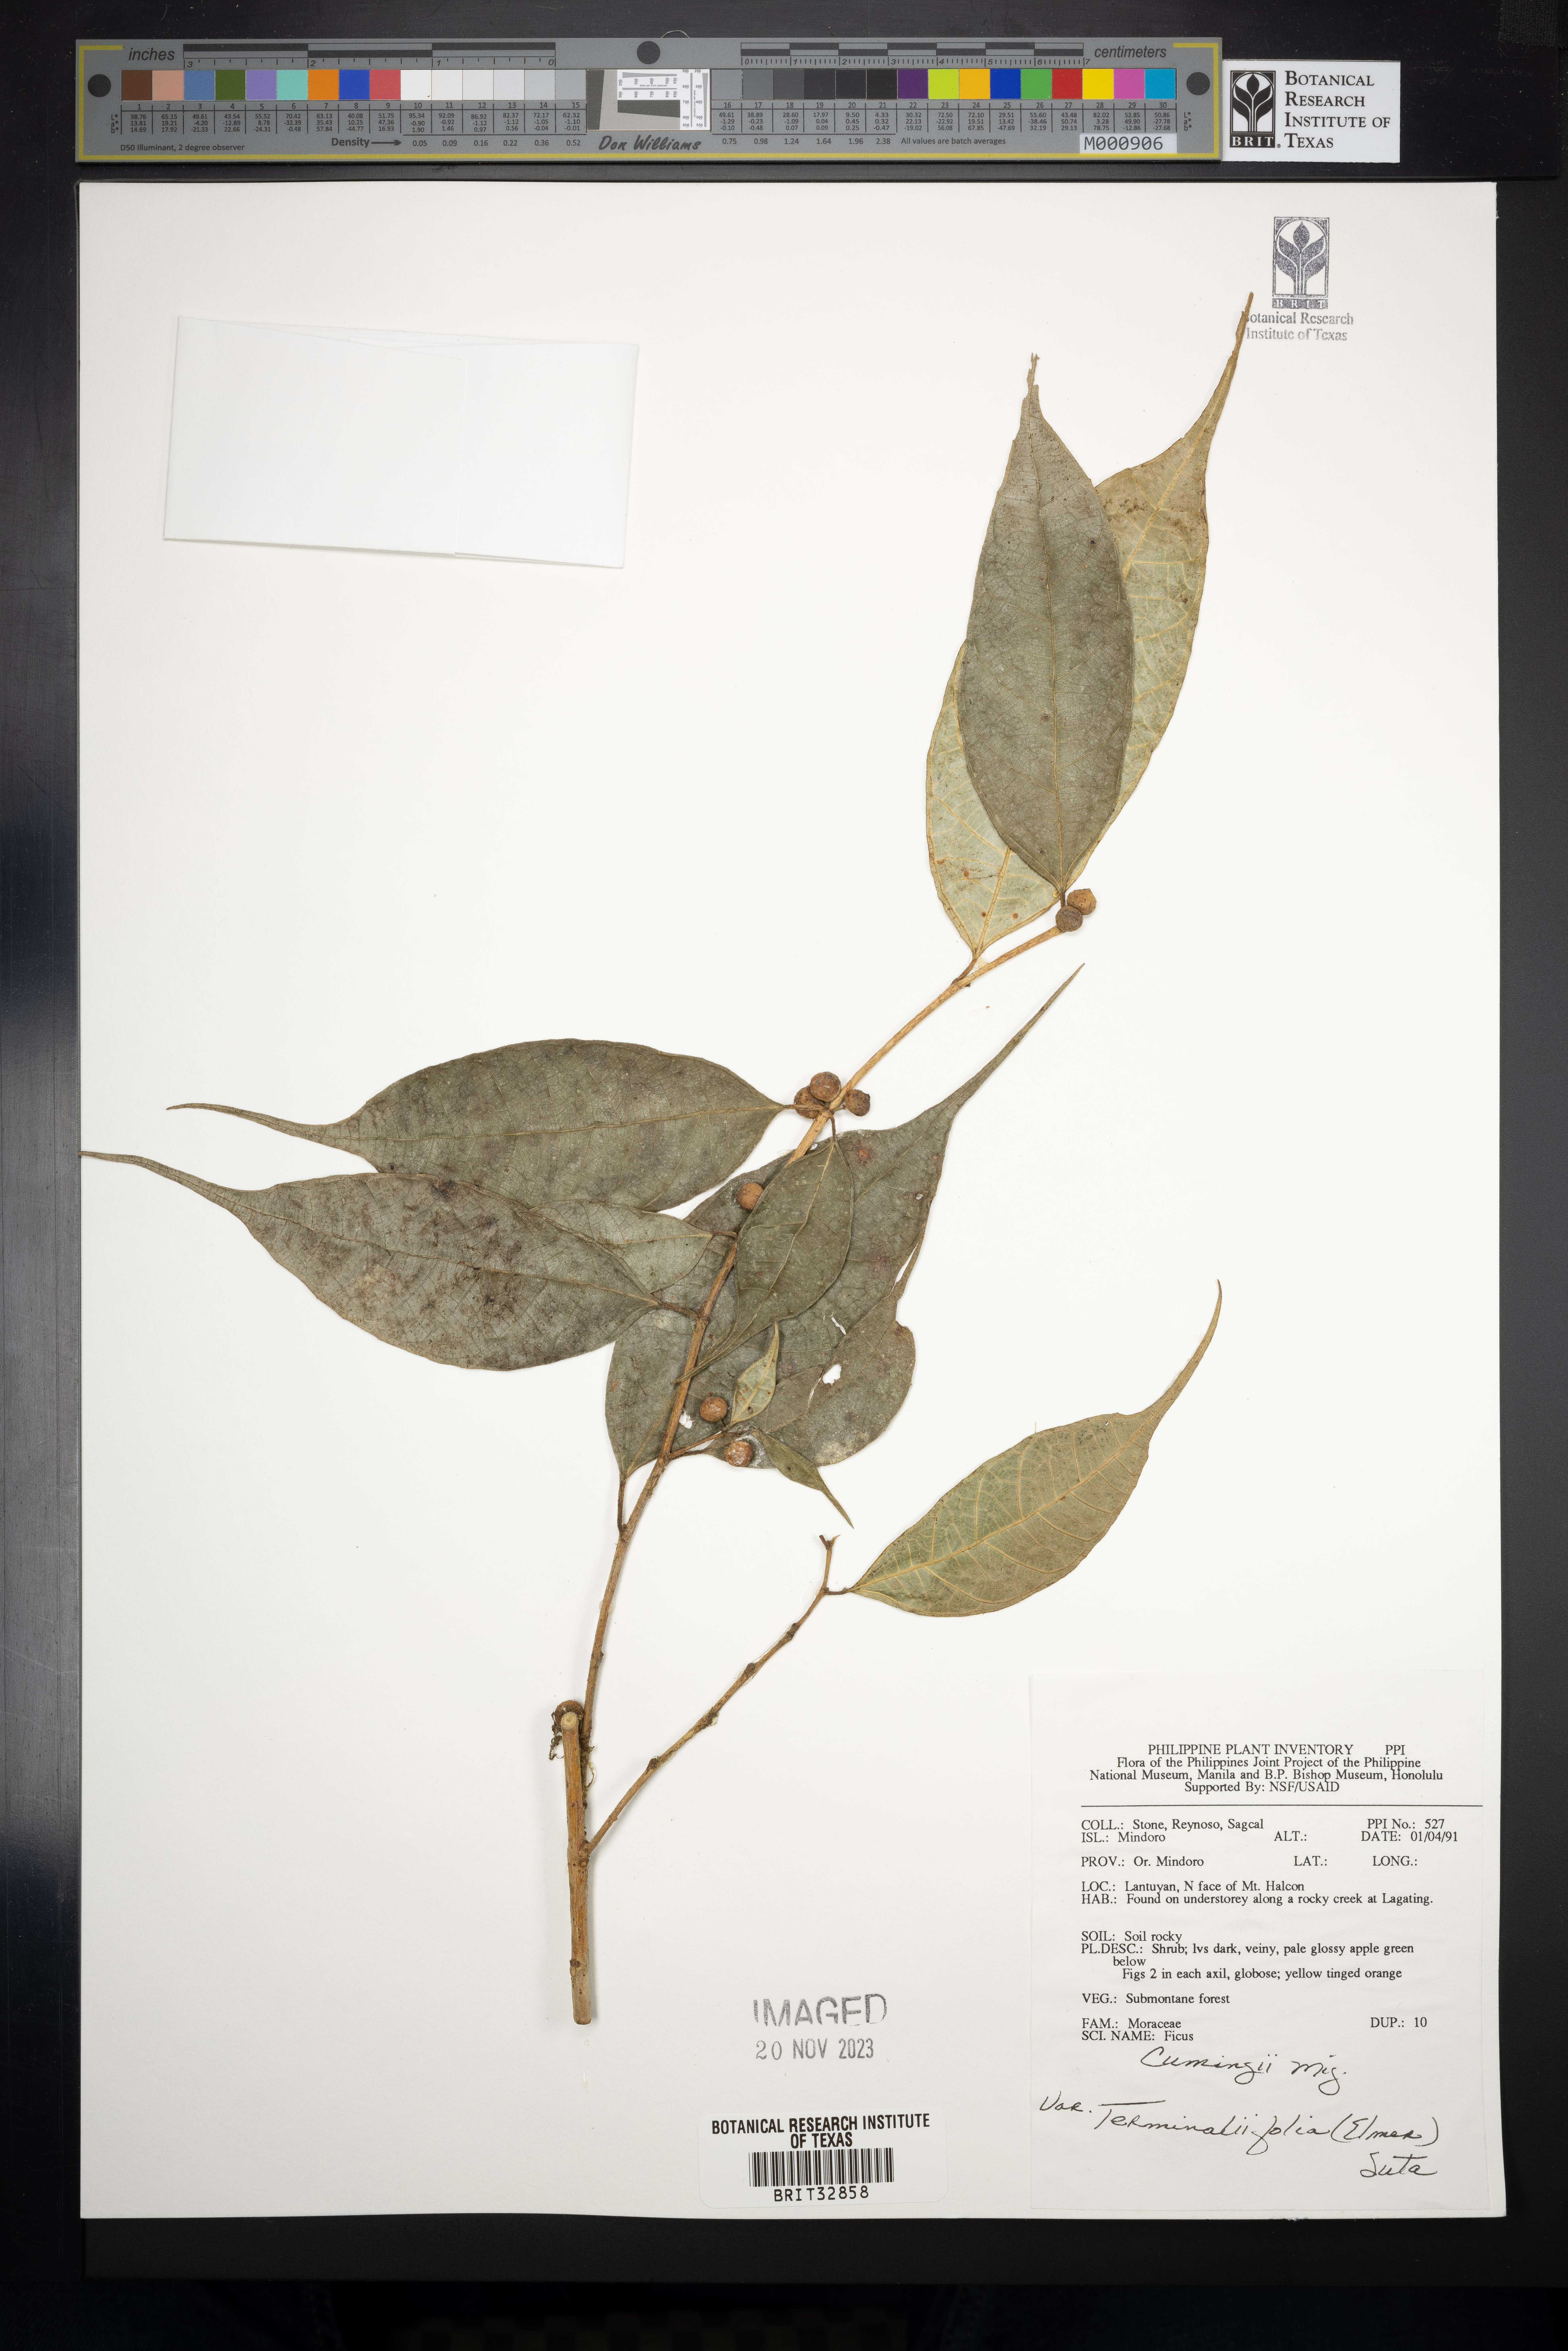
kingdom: Plantae
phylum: Tracheophyta
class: Magnoliopsida
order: Rosales
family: Moraceae
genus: Ficus
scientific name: Ficus cumingii
